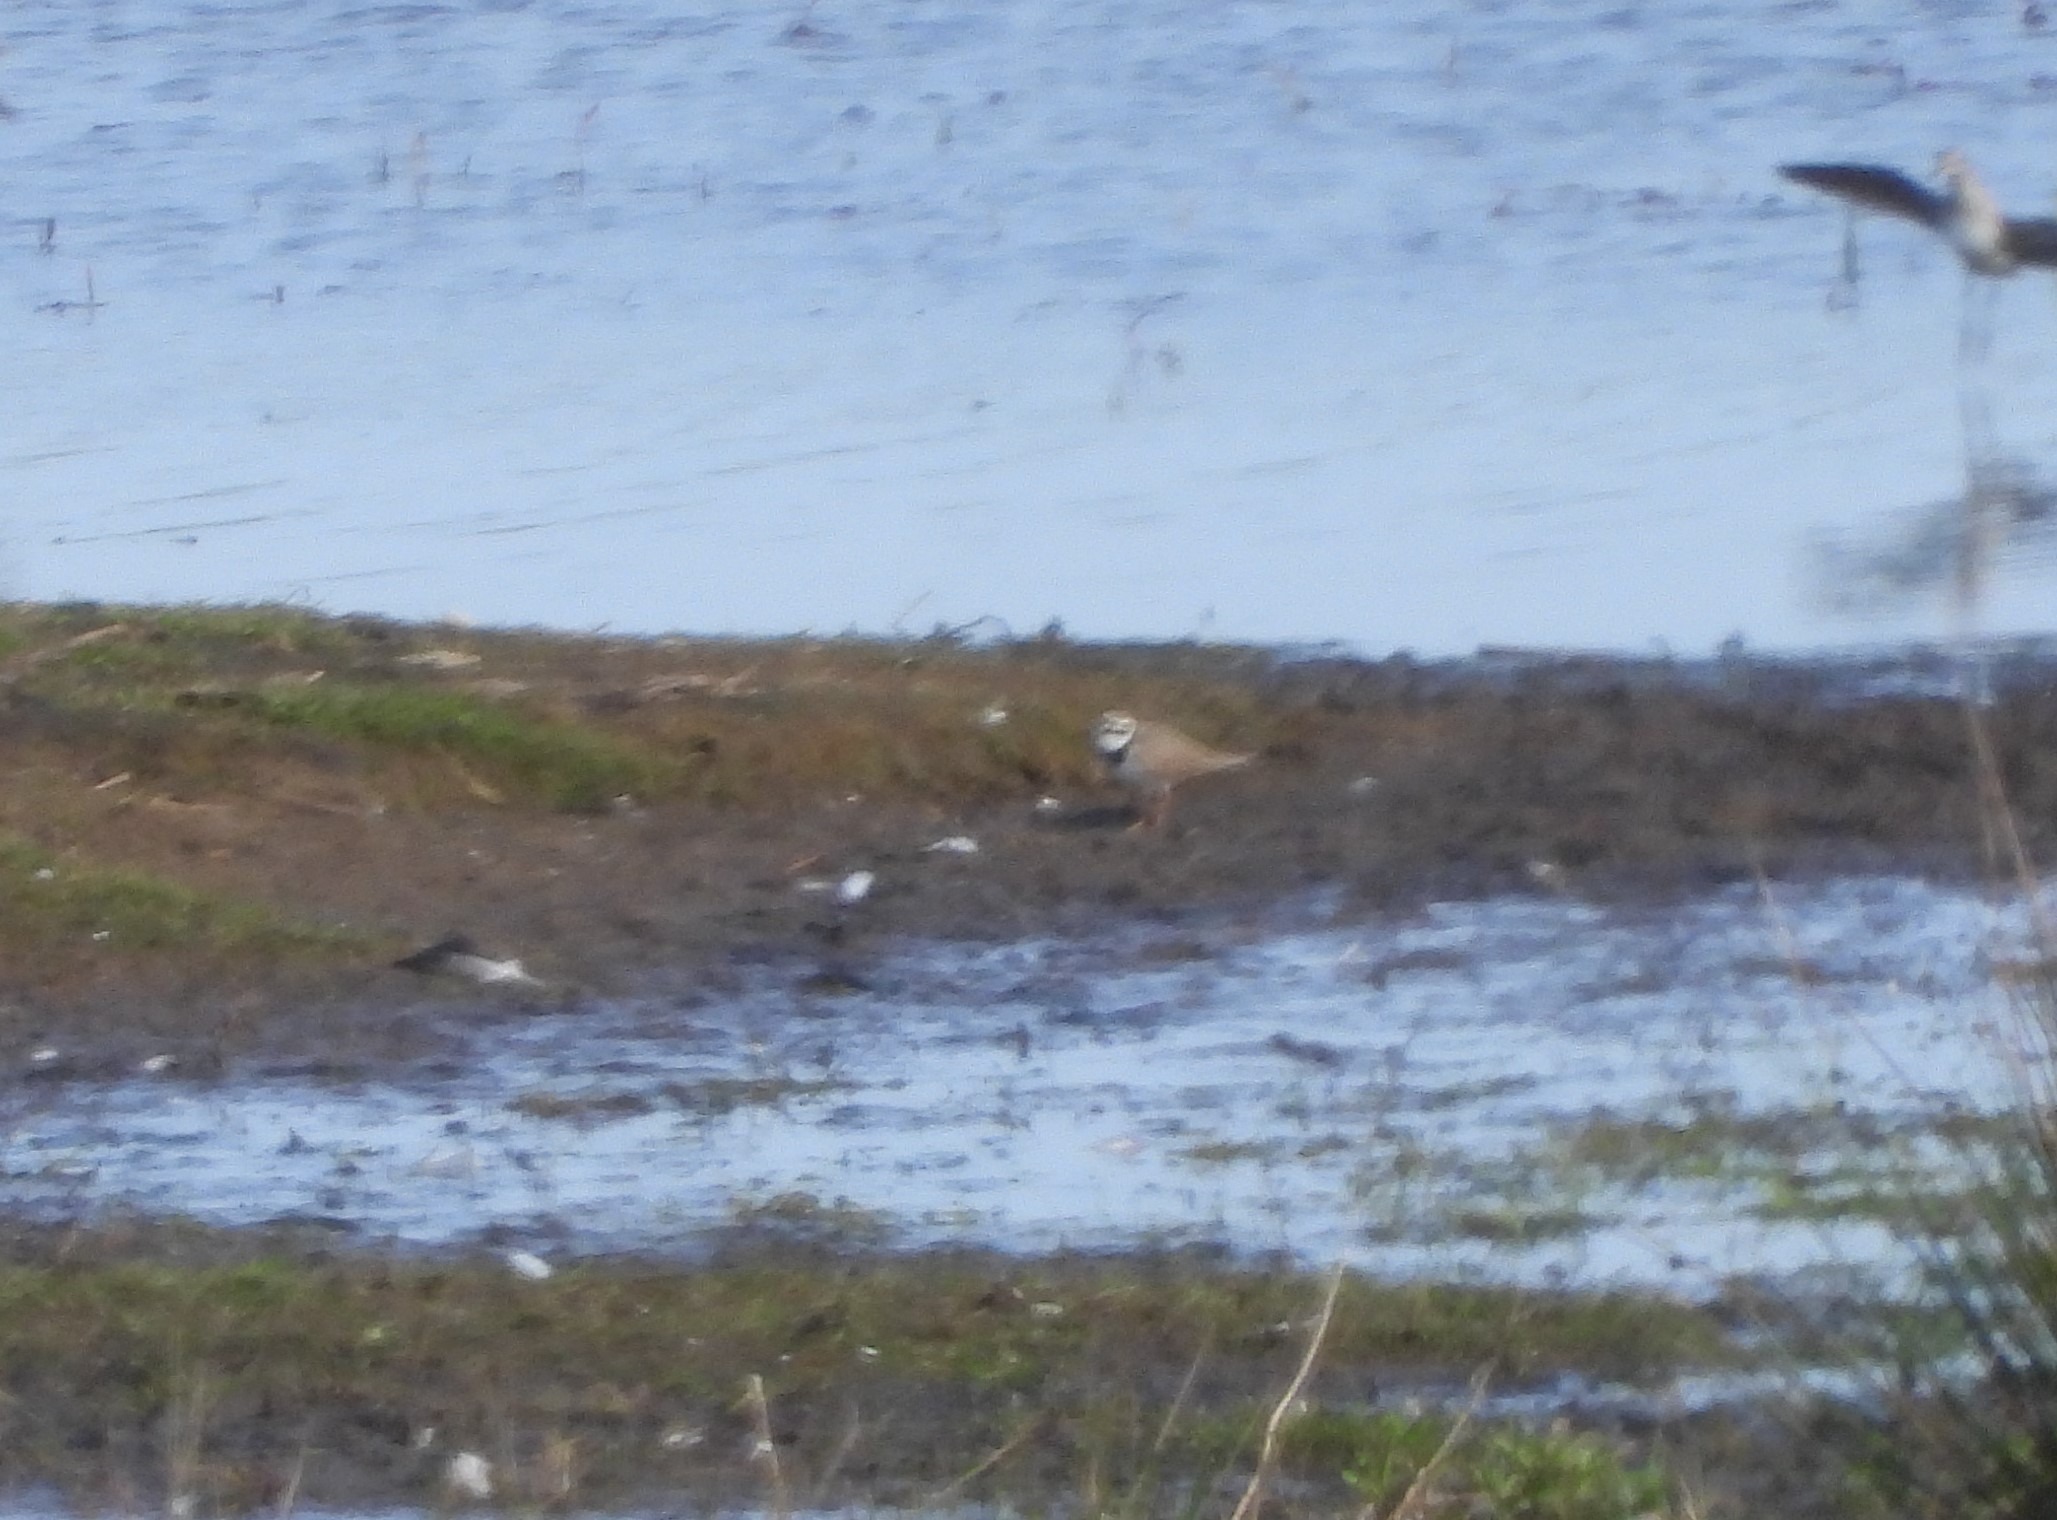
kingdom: Animalia
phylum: Chordata
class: Aves
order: Charadriiformes
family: Charadriidae
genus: Charadrius
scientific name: Charadrius dubius
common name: Lille præstekrave
